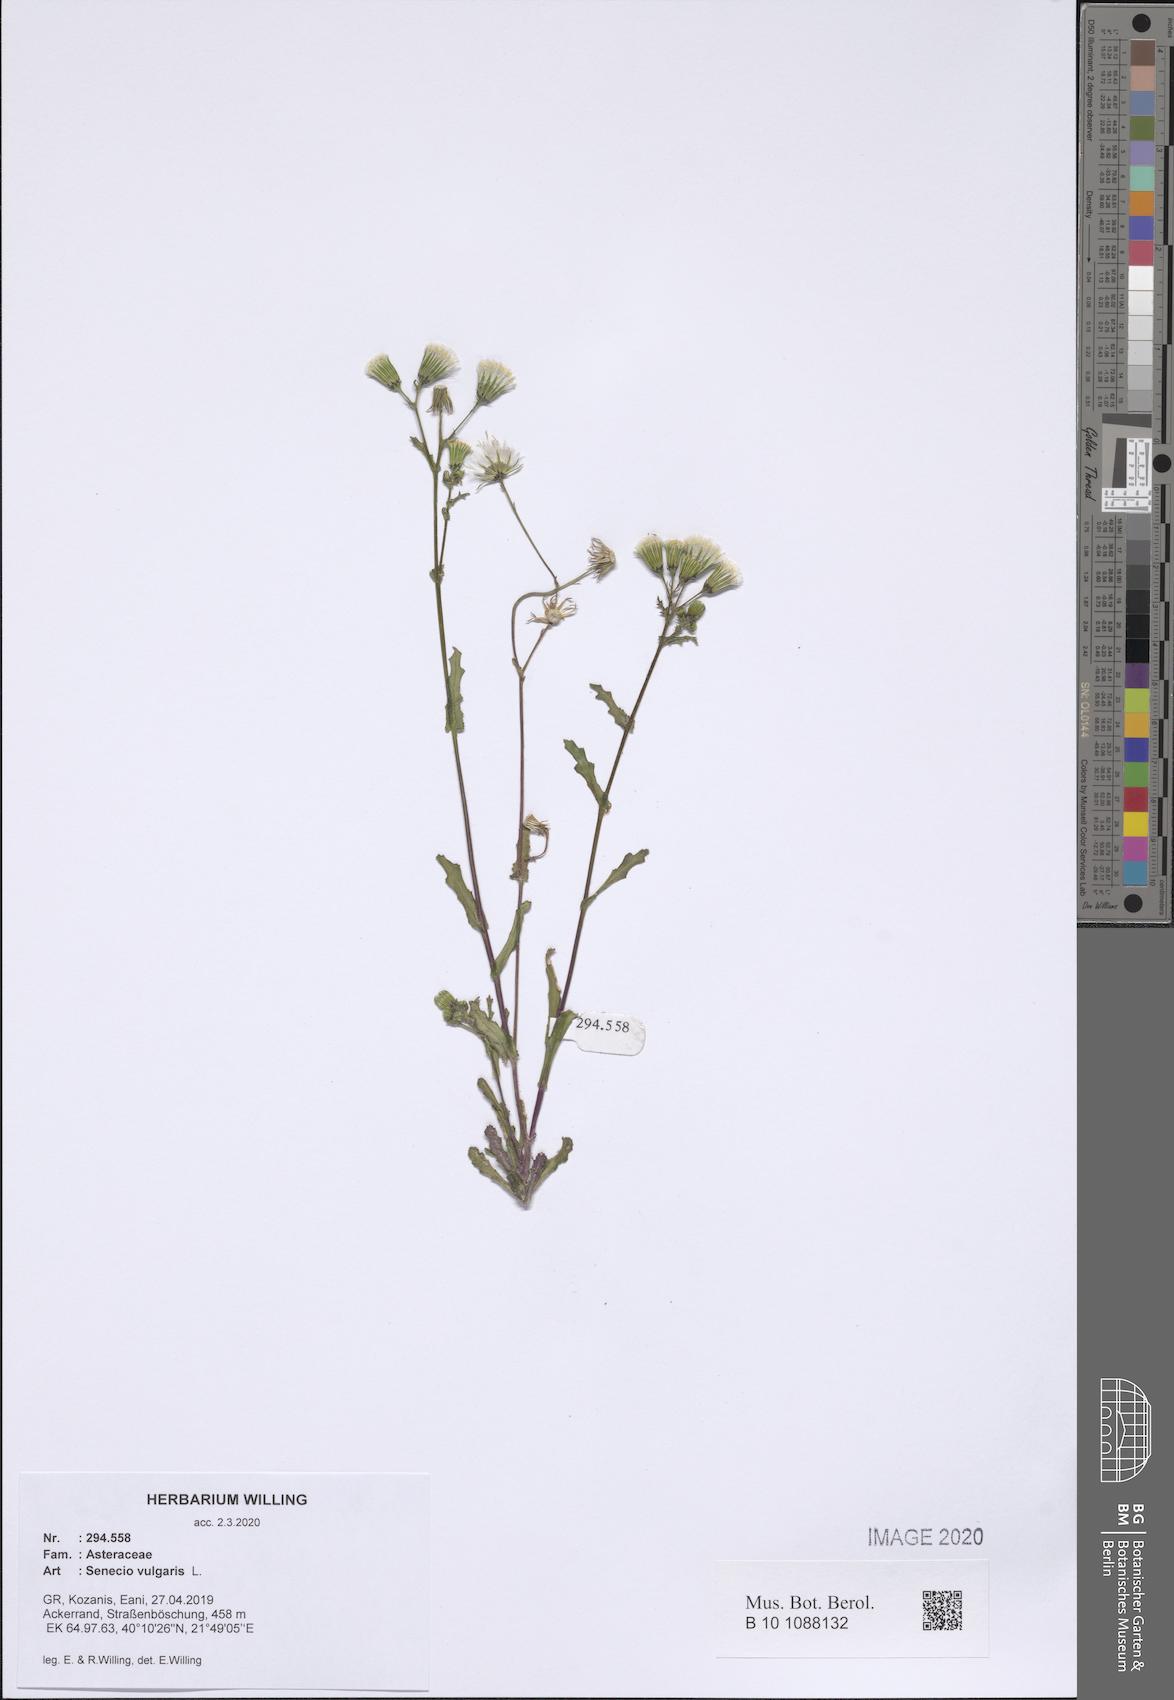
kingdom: Plantae
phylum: Tracheophyta
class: Magnoliopsida
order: Asterales
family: Asteraceae
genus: Senecio
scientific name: Senecio vulgaris
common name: Old-man-in-the-spring
